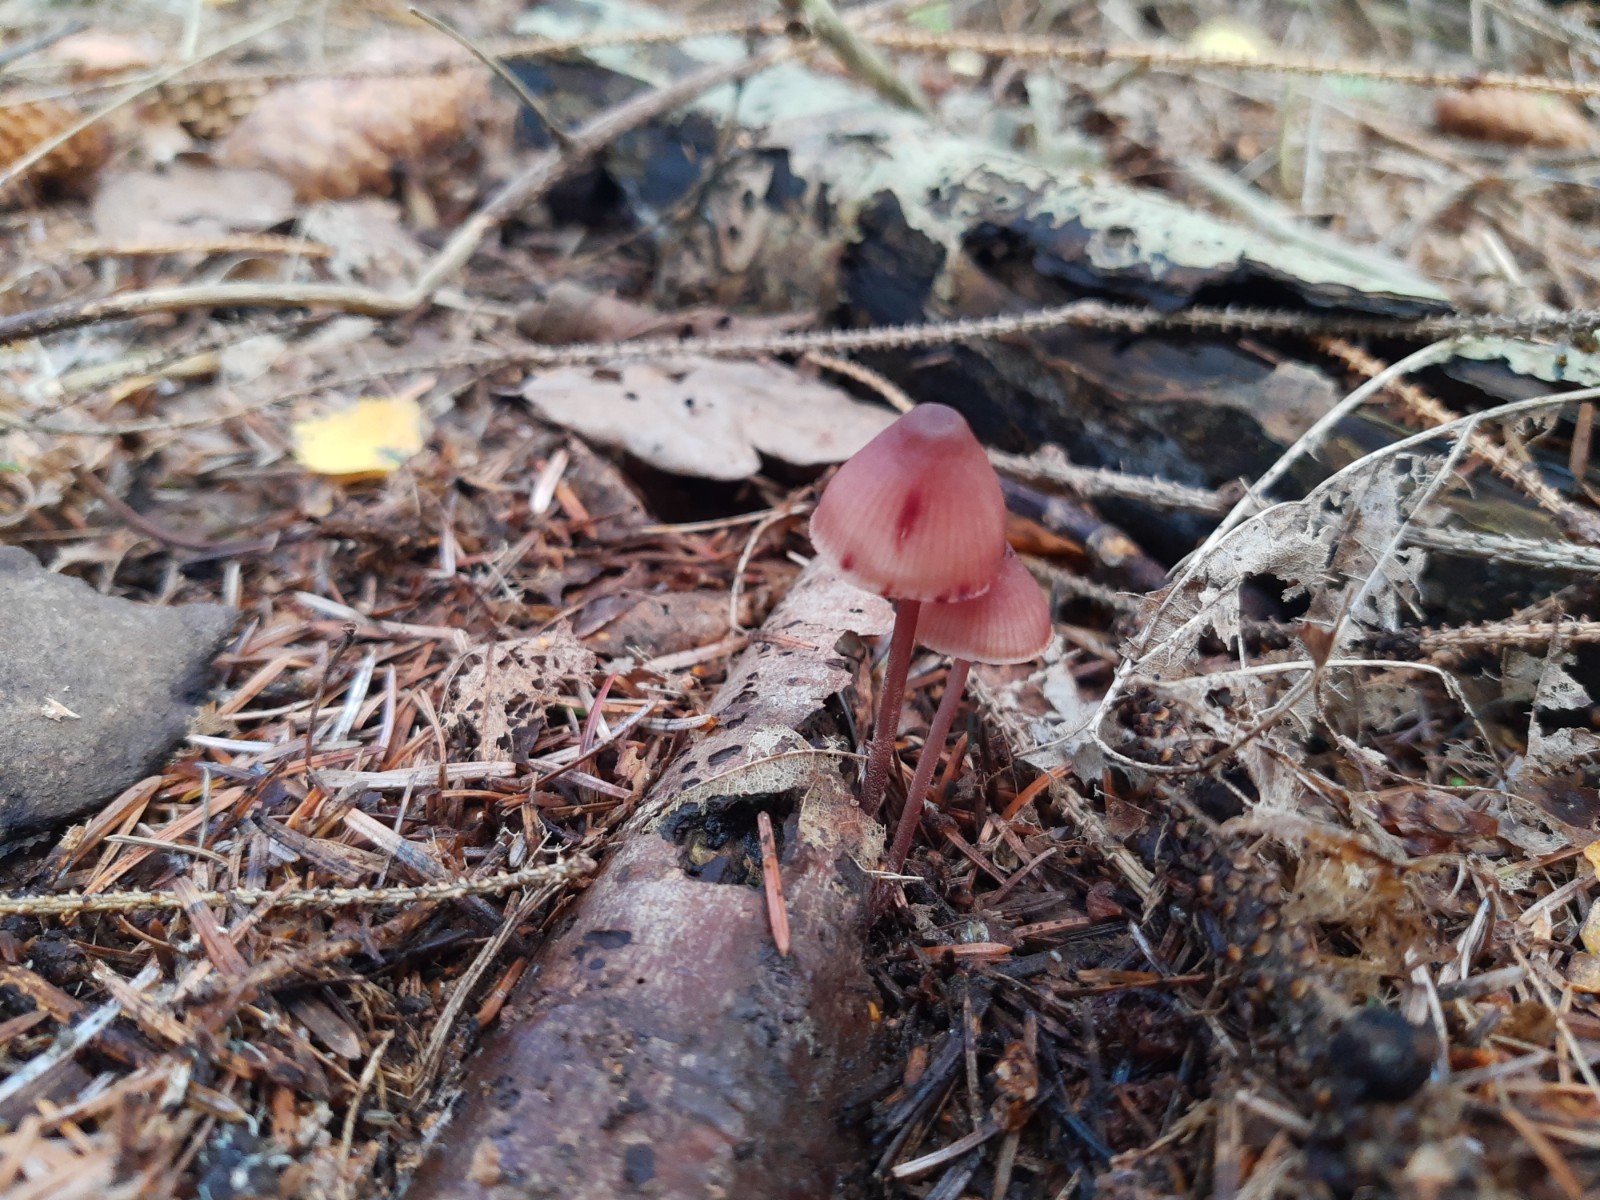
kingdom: Fungi
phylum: Basidiomycota
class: Agaricomycetes
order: Agaricales
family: Mycenaceae
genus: Mycena
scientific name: Mycena haematopus
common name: blødende huesvamp
